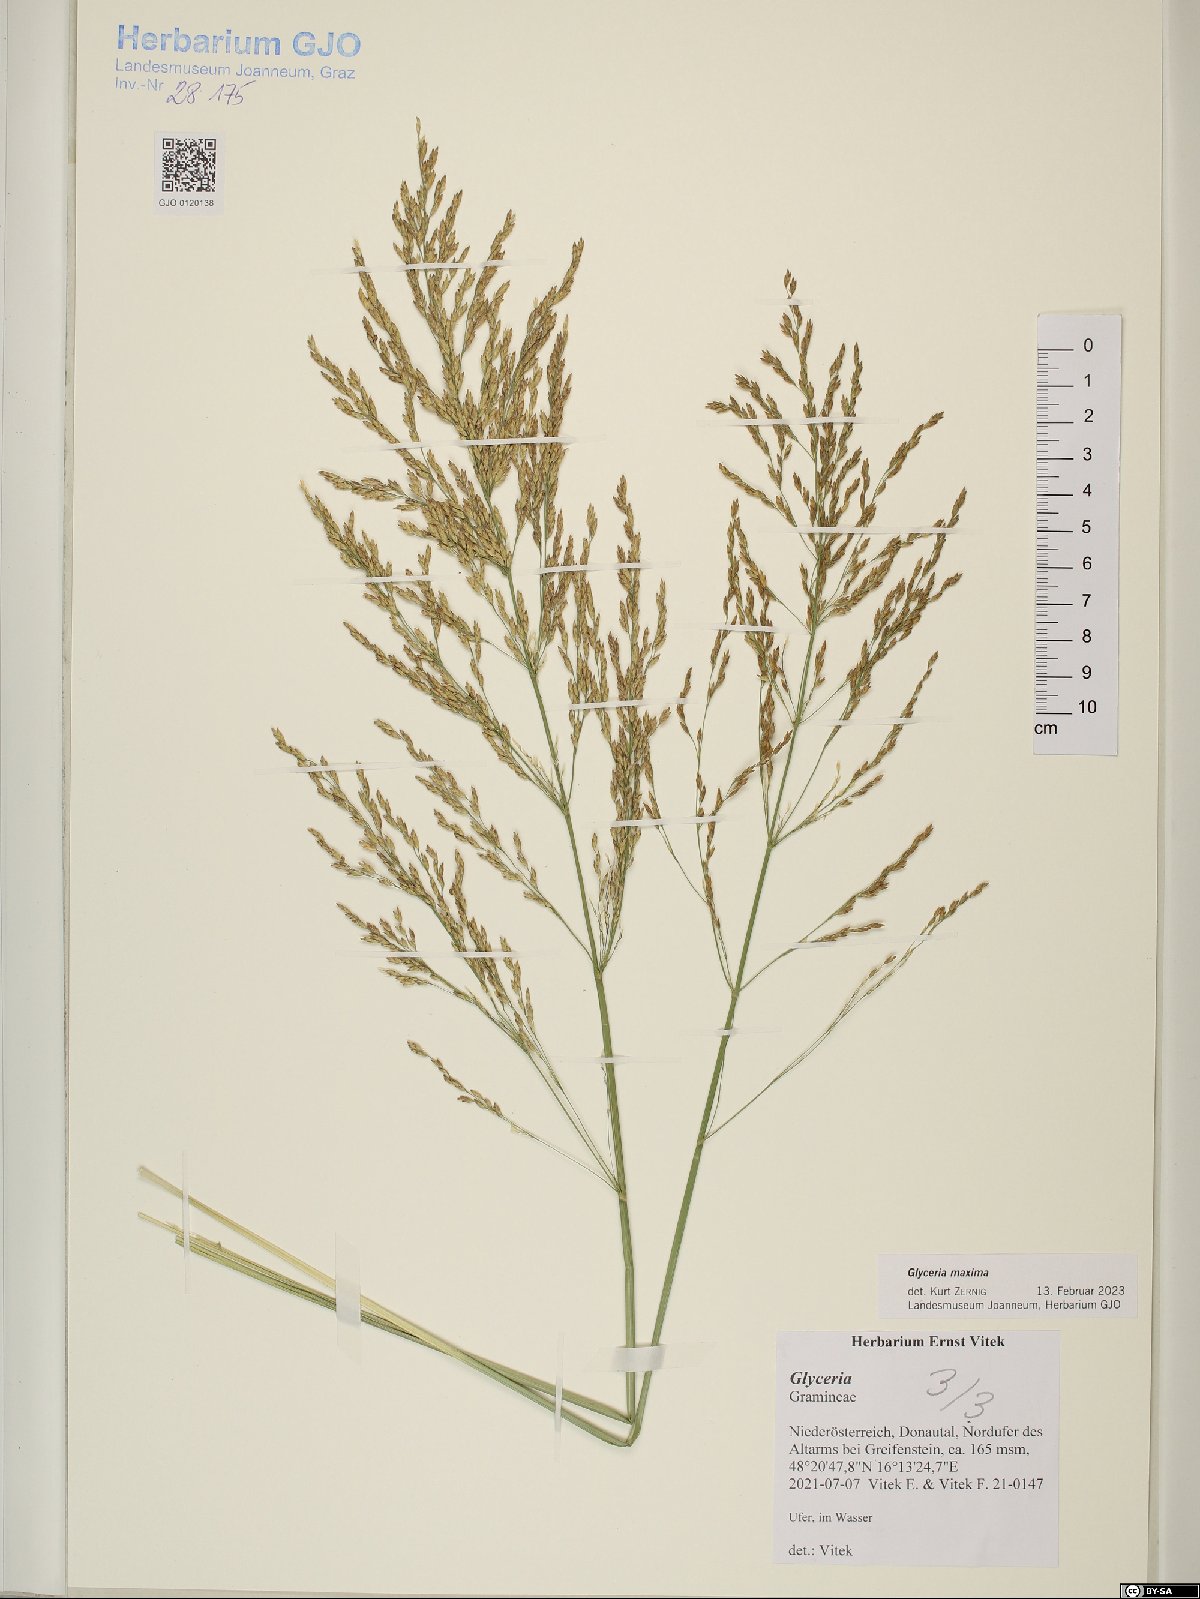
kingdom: Plantae
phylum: Tracheophyta
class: Liliopsida
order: Poales
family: Poaceae
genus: Glyceria
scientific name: Glyceria maxima
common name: Reed mannagrass
